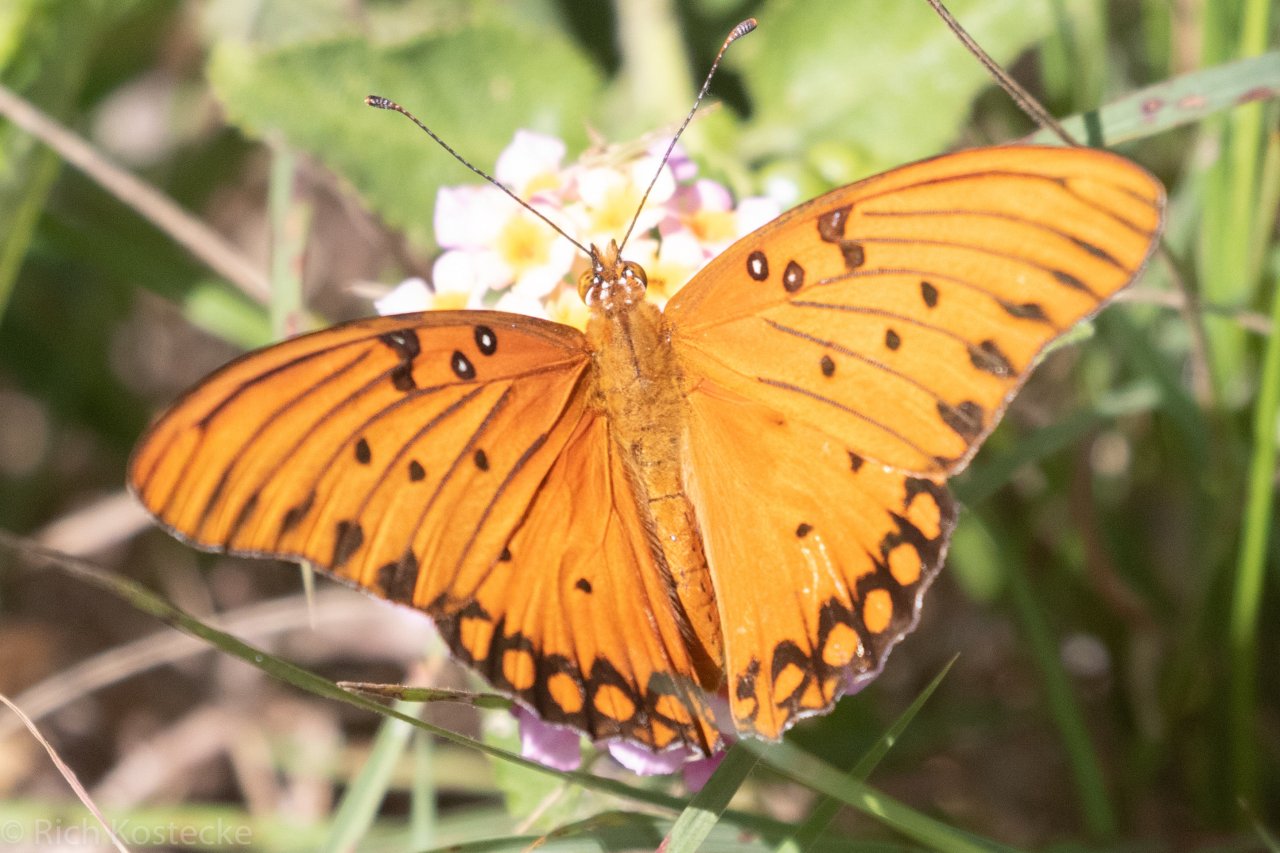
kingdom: Animalia
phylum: Arthropoda
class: Insecta
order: Lepidoptera
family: Nymphalidae
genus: Dione
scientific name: Dione vanillae
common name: Gulf Fritillary
